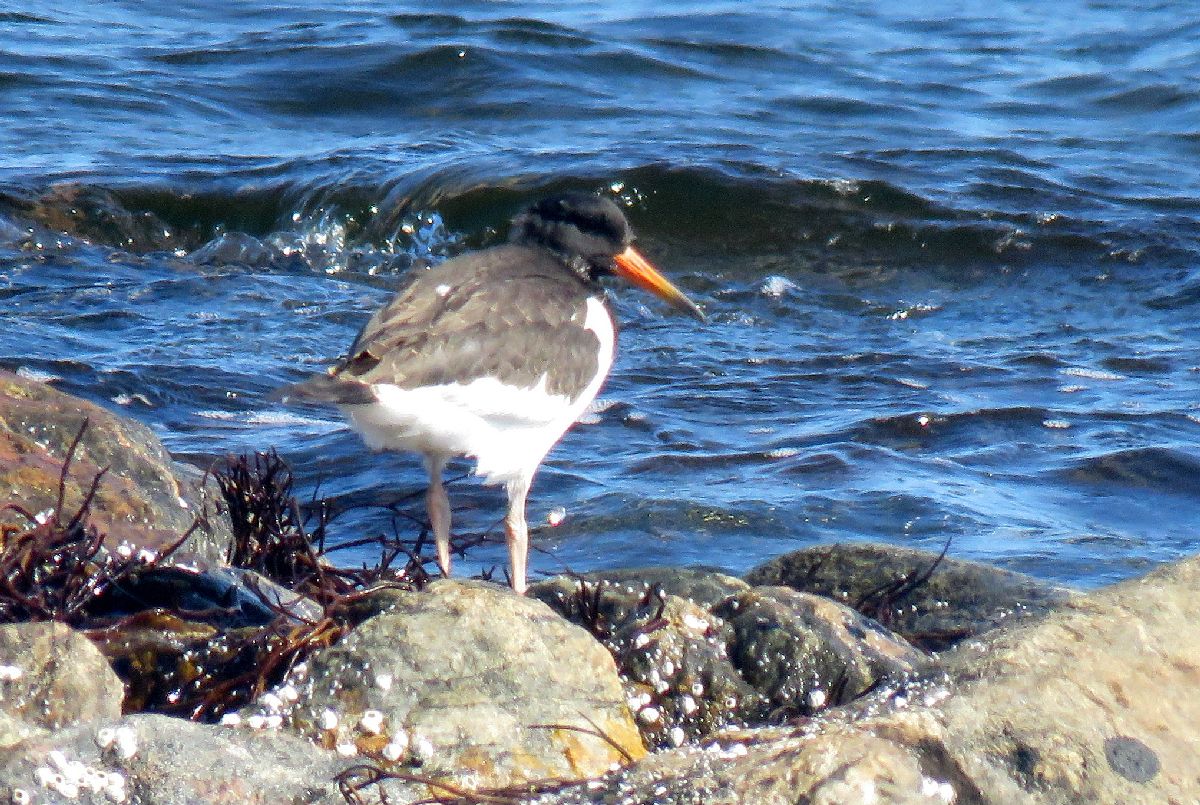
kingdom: Animalia
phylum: Chordata
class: Aves
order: Charadriiformes
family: Haematopodidae
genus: Haematopus
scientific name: Haematopus ostralegus
